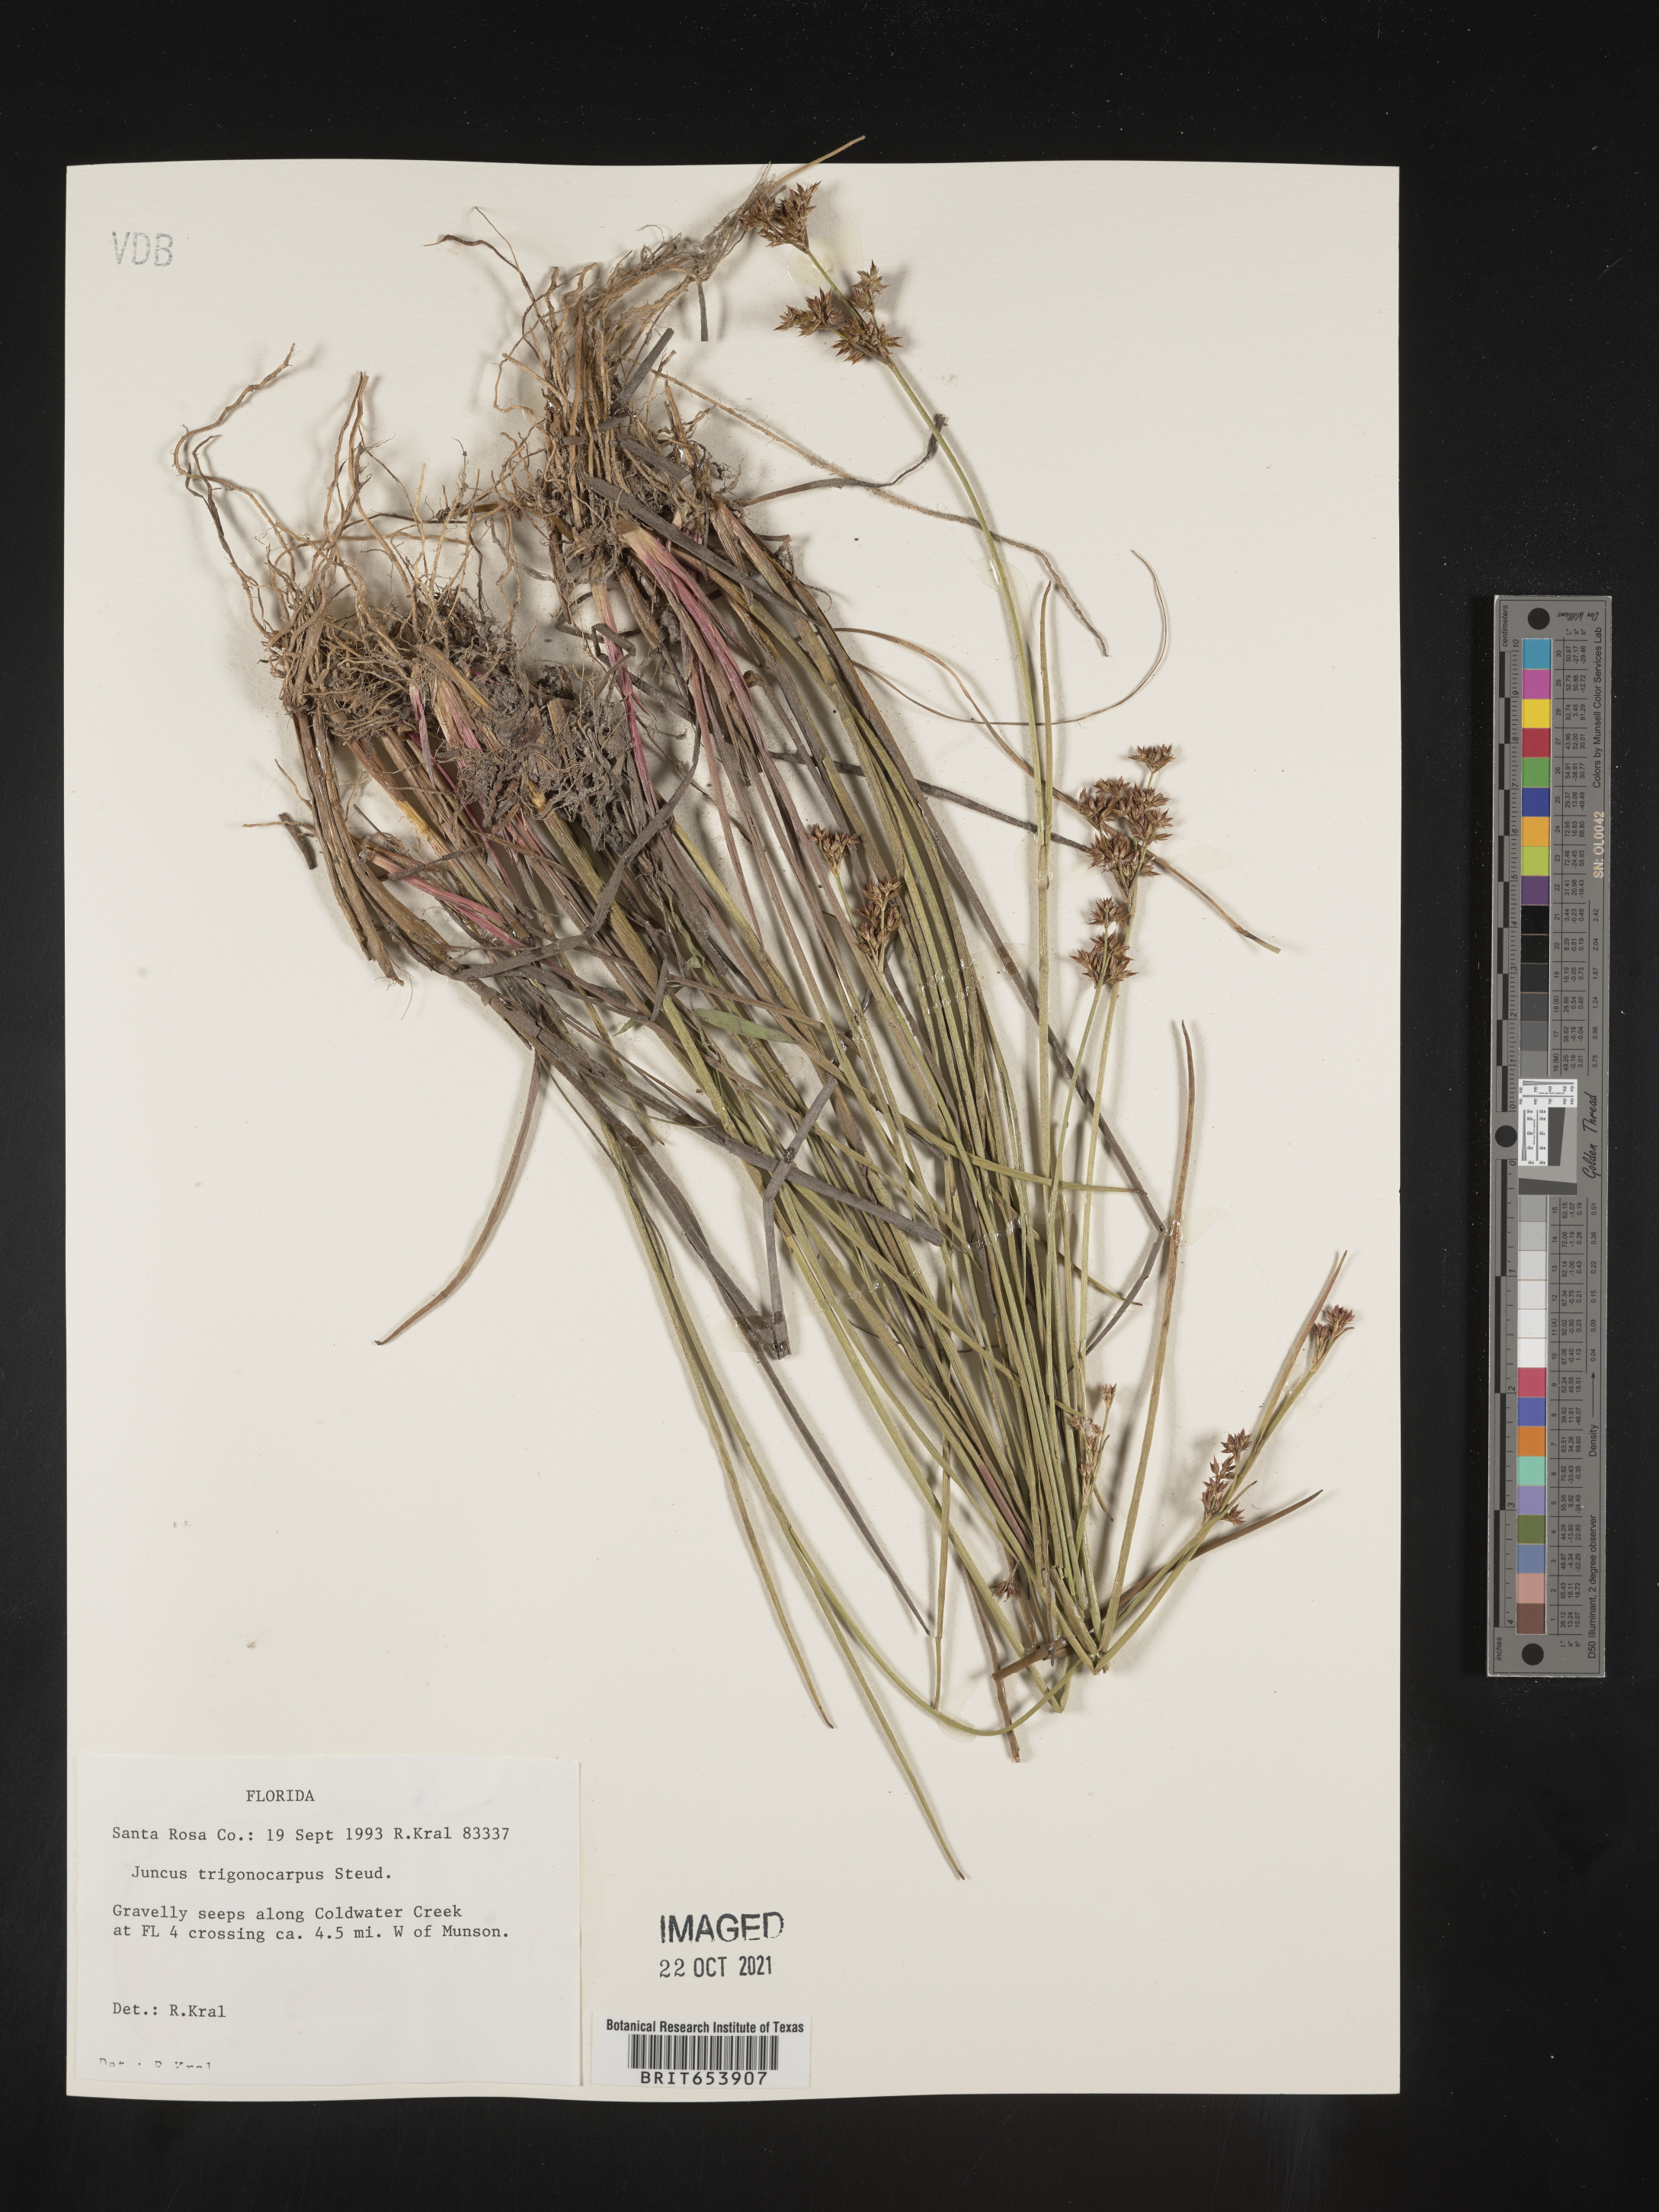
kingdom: Plantae
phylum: Tracheophyta
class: Liliopsida
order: Poales
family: Juncaceae
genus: Juncus
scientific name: Juncus trigonocarpus
